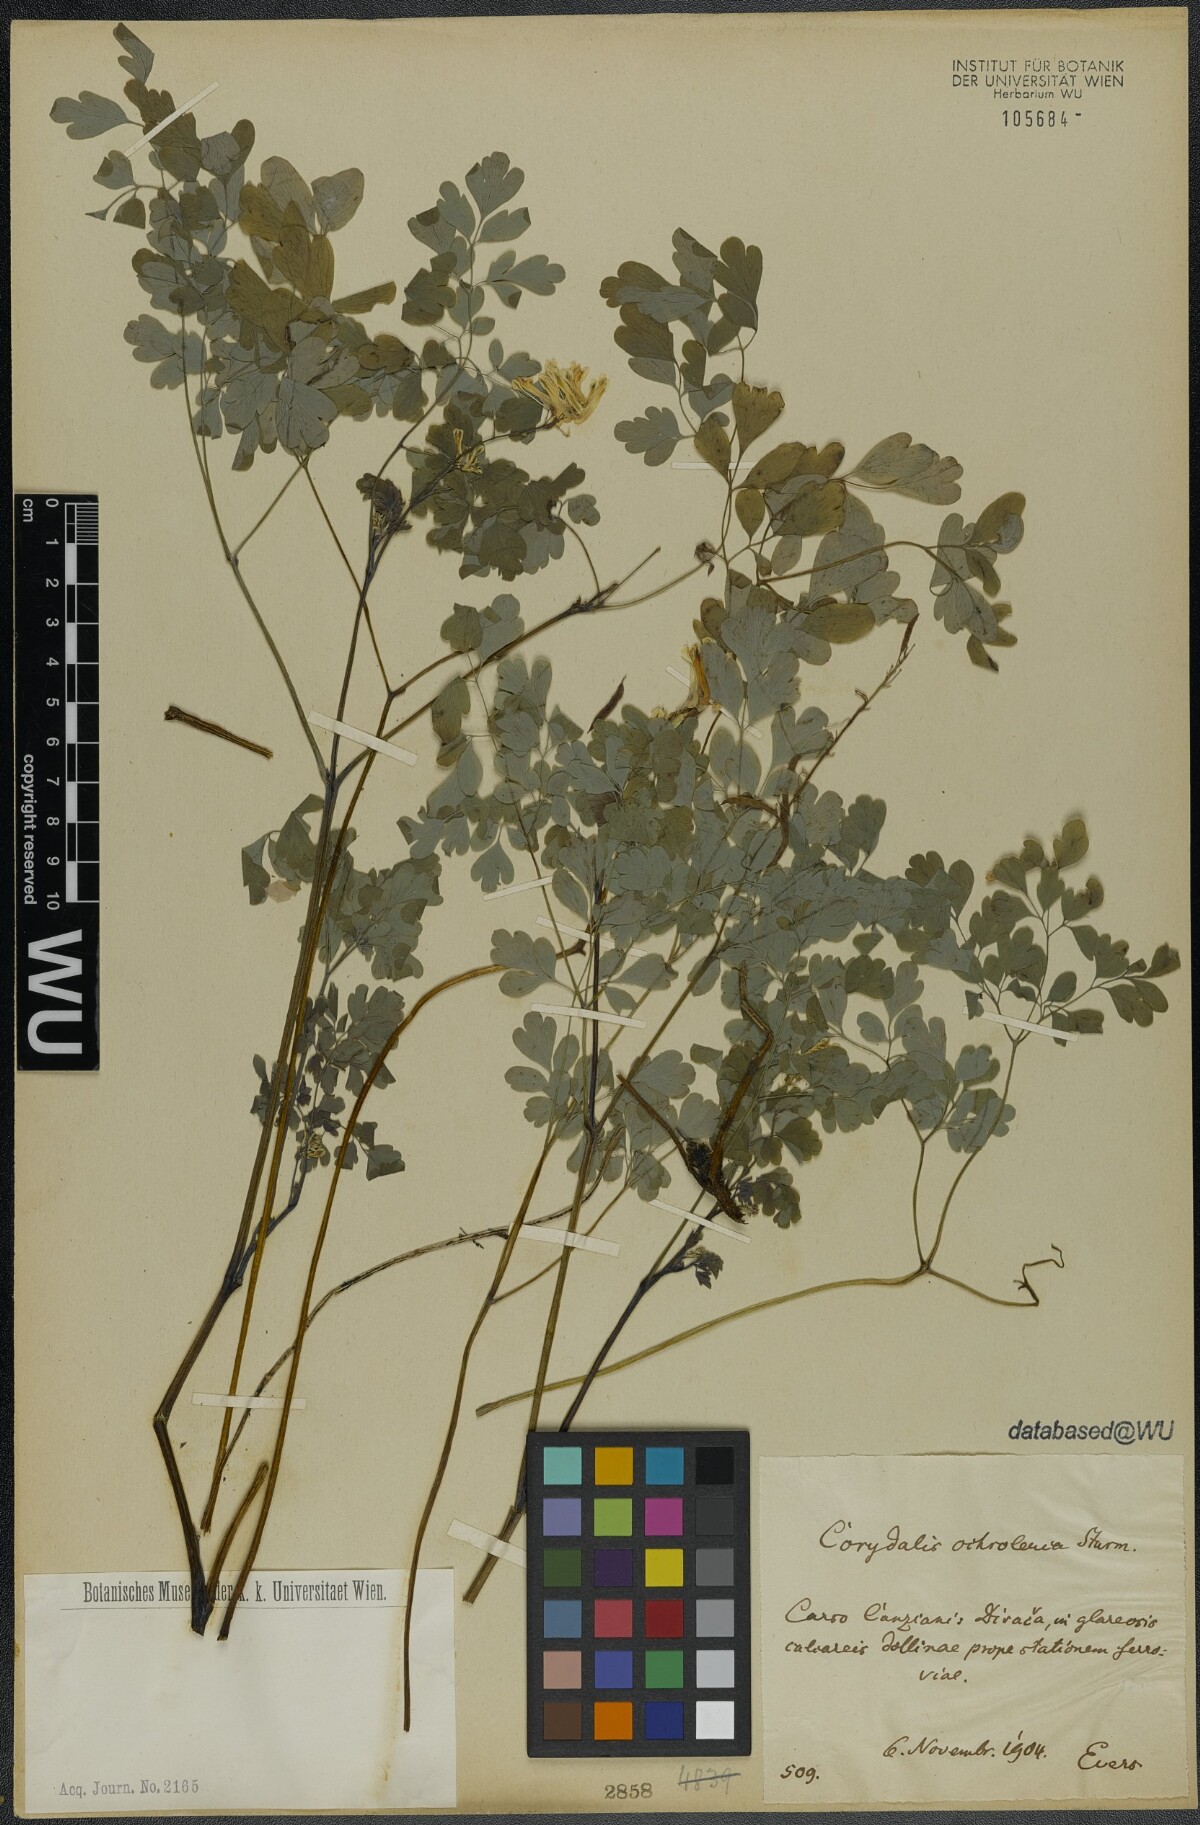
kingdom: Plantae
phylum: Tracheophyta
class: Magnoliopsida
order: Ranunculales
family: Papaveraceae
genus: Pseudofumaria
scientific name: Pseudofumaria alba
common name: Pale corydalis
